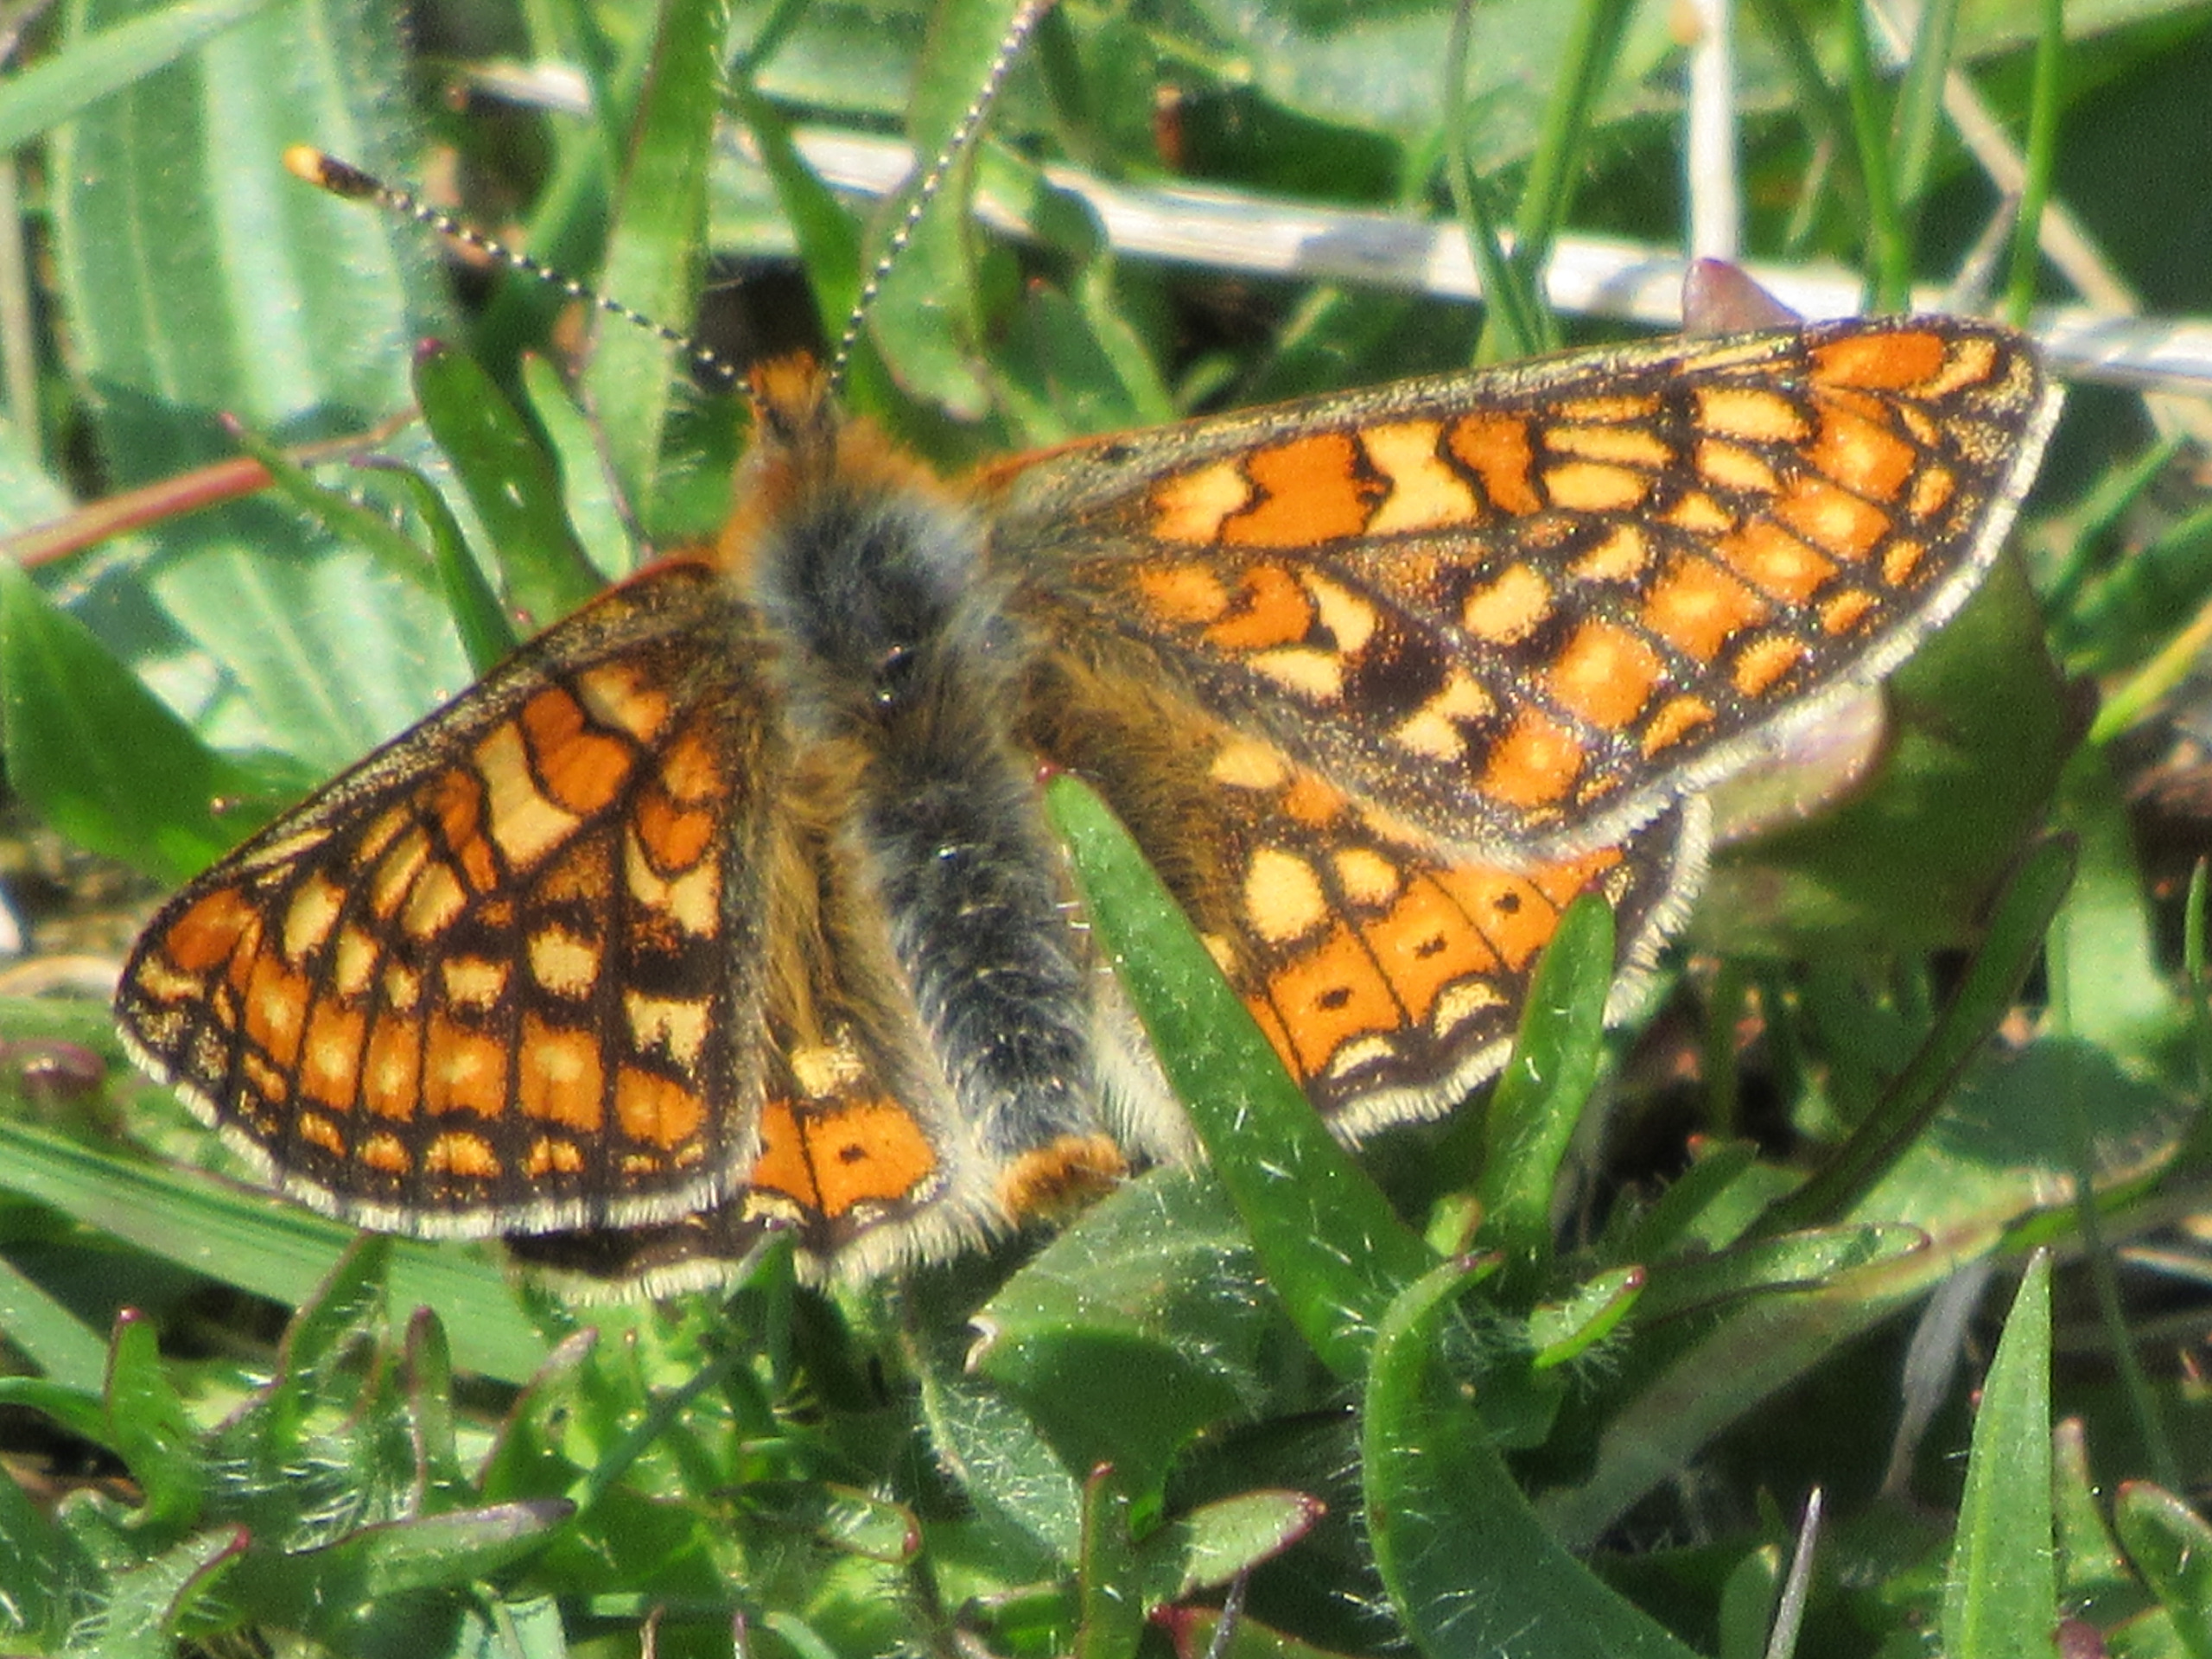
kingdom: Animalia
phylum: Arthropoda
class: Insecta
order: Lepidoptera
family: Nymphalidae
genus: Euphydryas
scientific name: Euphydryas aurinia
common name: Hedepletvinge
